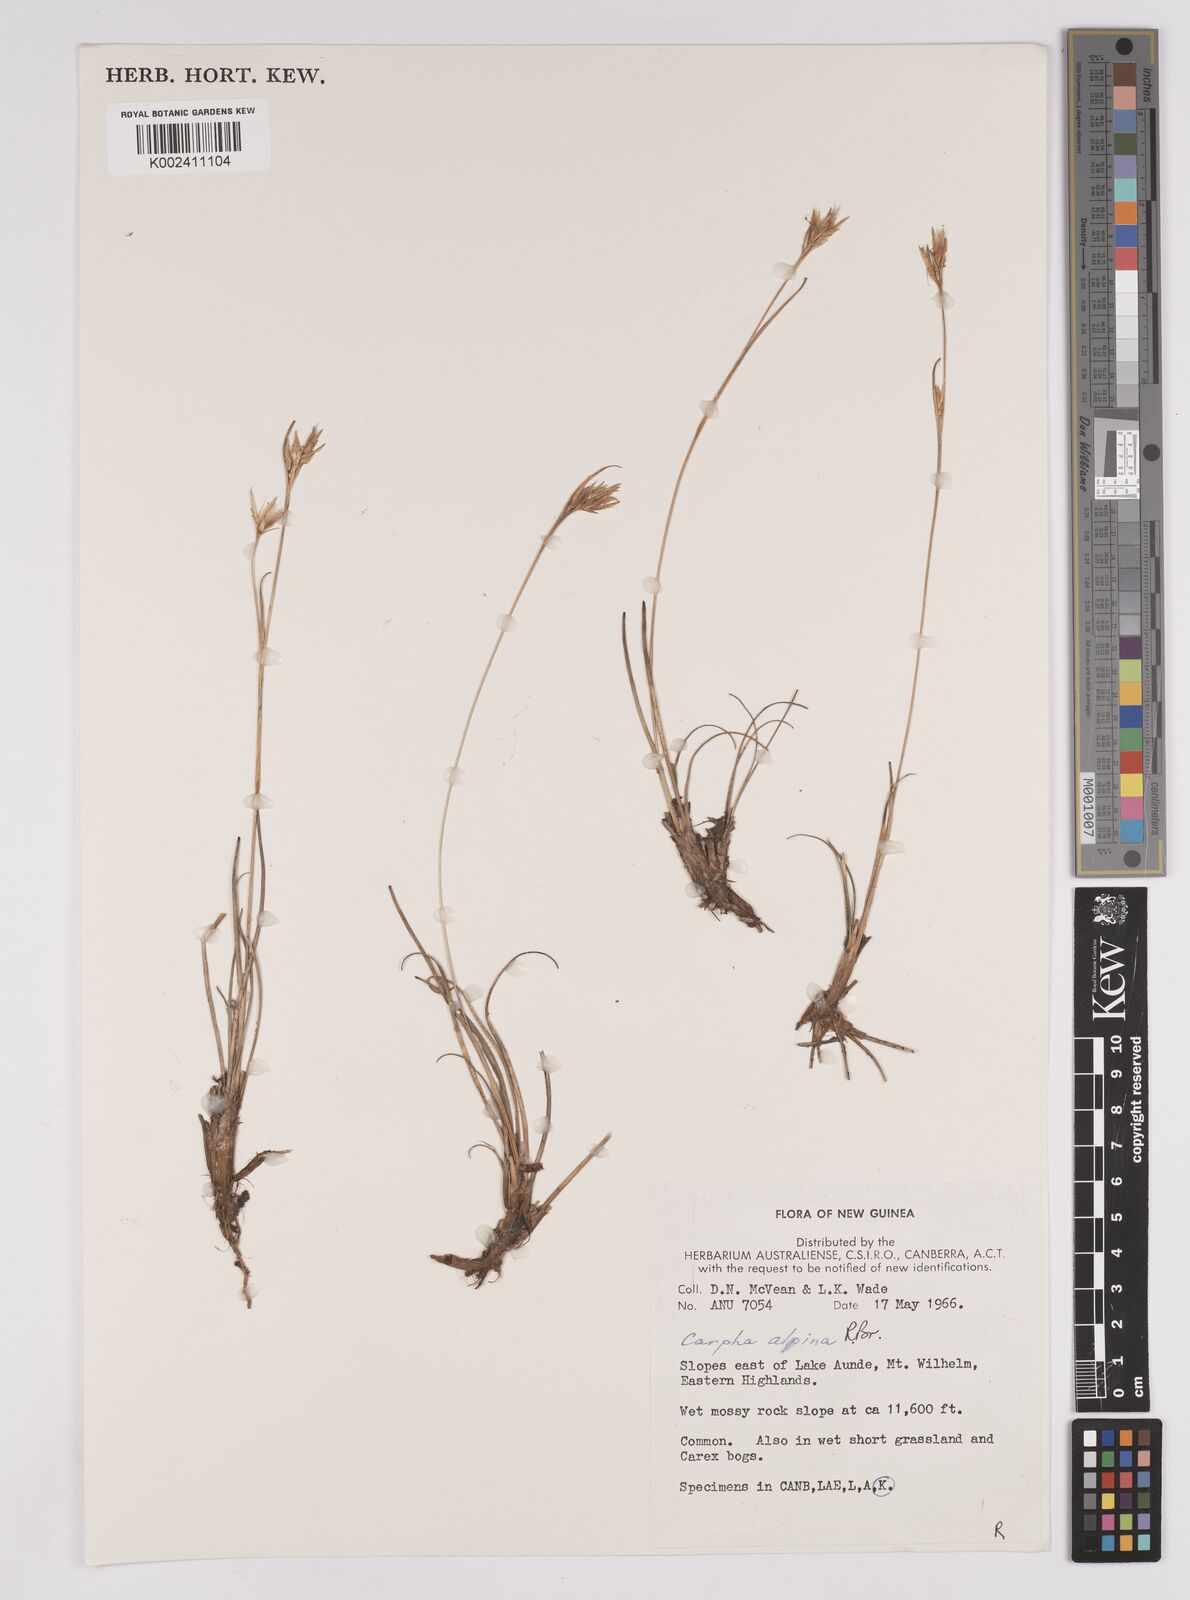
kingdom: Plantae
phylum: Tracheophyta
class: Liliopsida
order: Poales
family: Cyperaceae
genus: Carpha
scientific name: Carpha alpina
